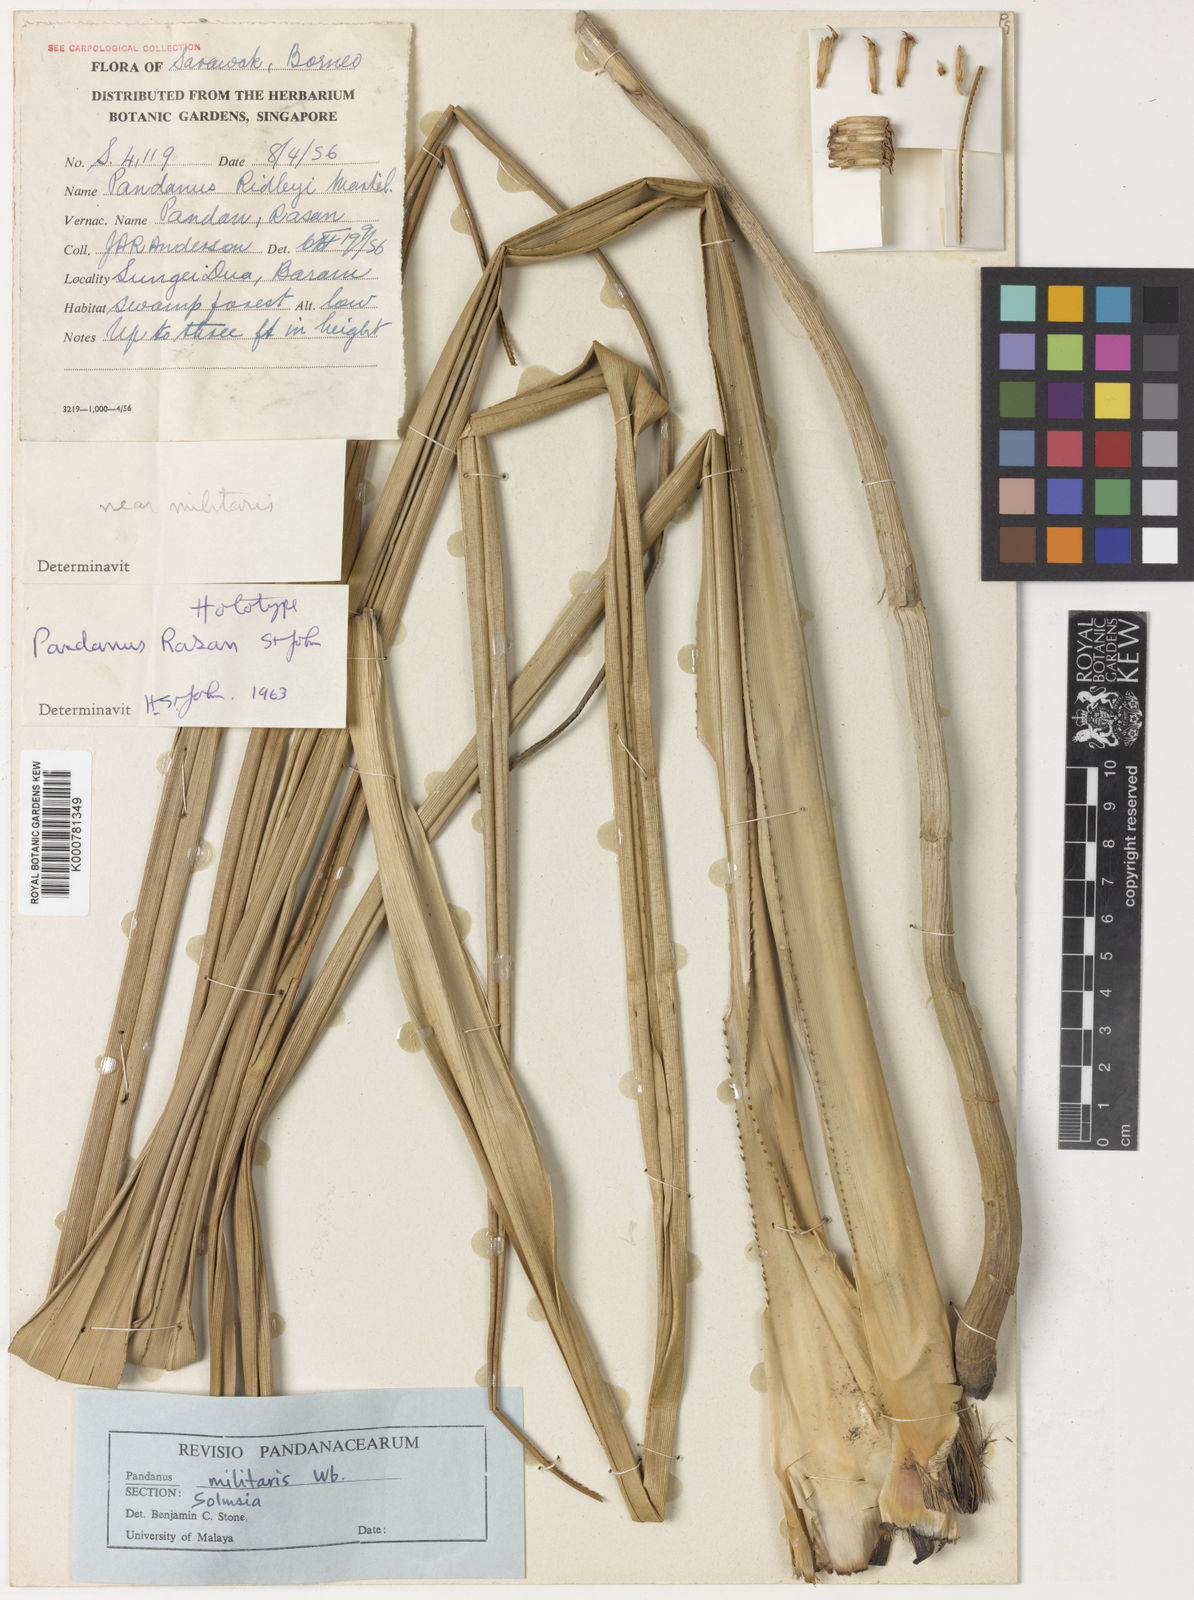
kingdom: Plantae
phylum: Tracheophyta
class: Liliopsida
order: Pandanales
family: Pandanaceae
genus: Pandanus
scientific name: Pandanus
